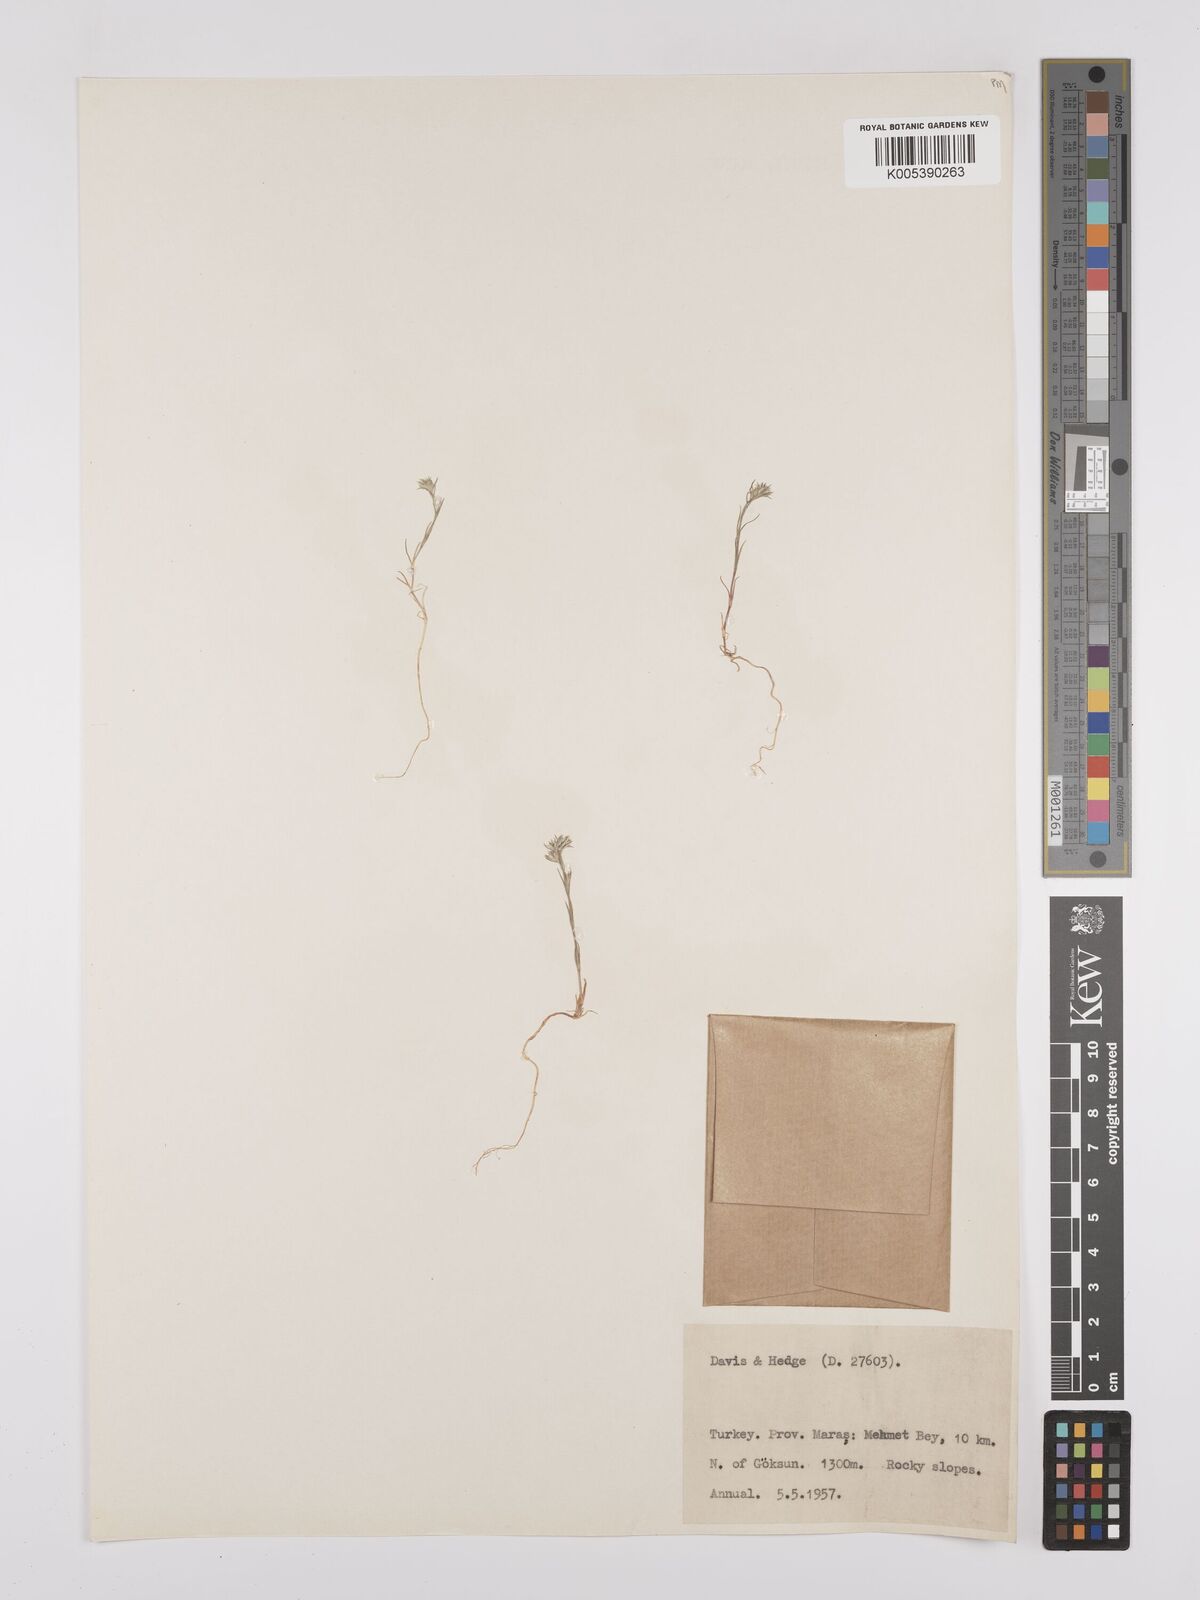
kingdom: Plantae
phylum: Tracheophyta
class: Magnoliopsida
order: Caryophyllales
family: Caryophyllaceae
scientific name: Caryophyllaceae
